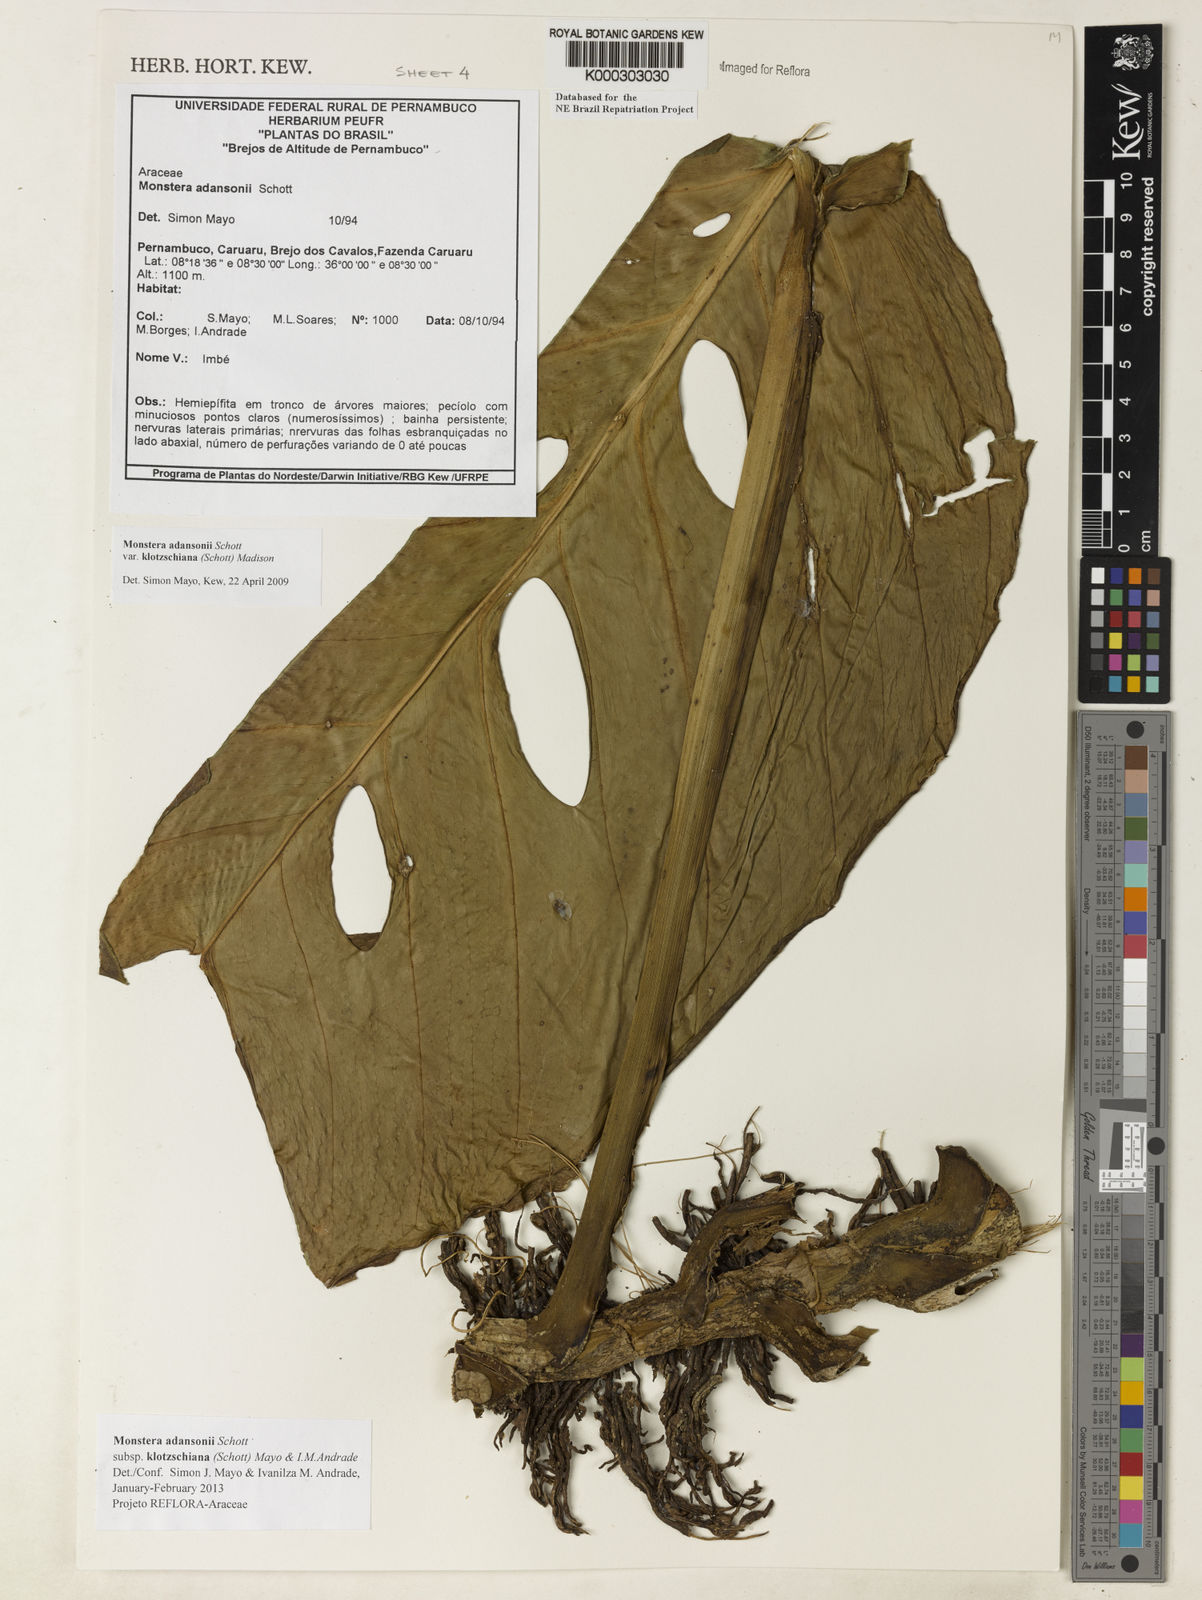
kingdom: Plantae
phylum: Tracheophyta
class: Liliopsida
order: Alismatales
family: Araceae
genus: Monstera
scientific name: Monstera adansonii
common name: Tarovine
